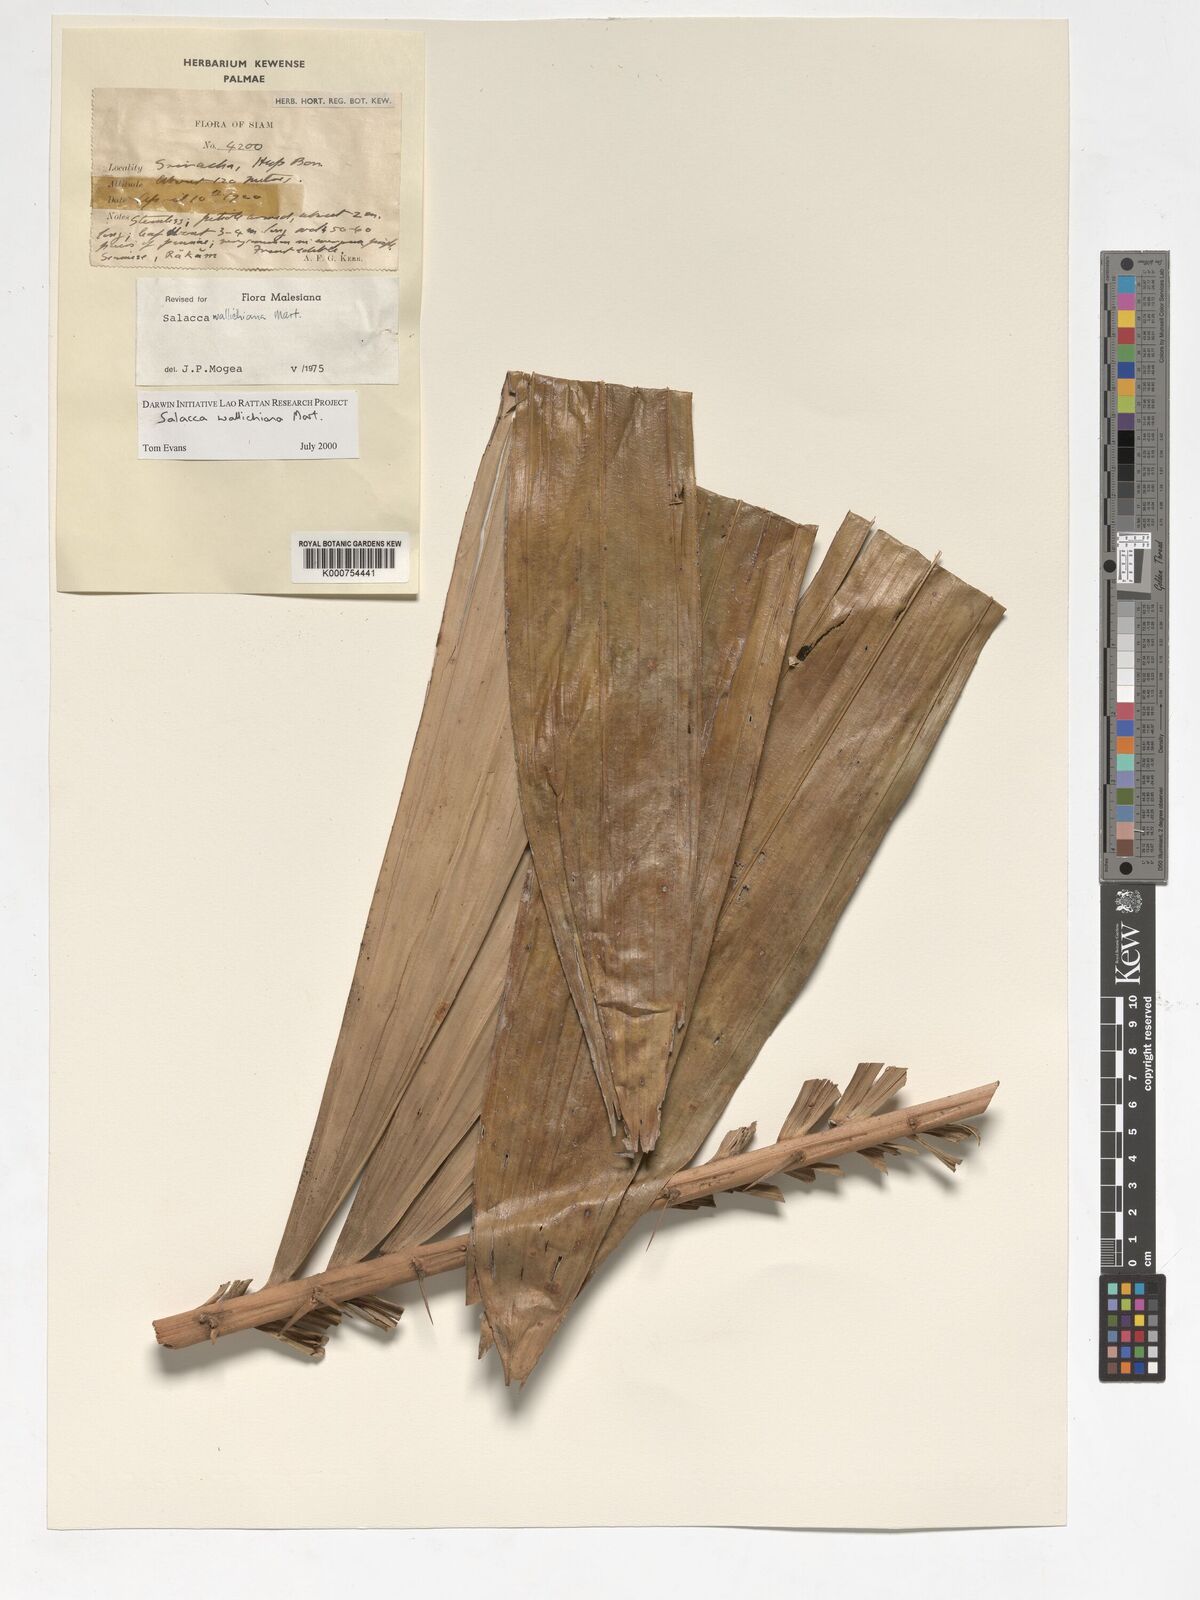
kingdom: Plantae
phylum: Tracheophyta
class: Liliopsida
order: Arecales
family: Arecaceae
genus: Salacca
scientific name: Salacca wallichiana
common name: Rakum palm
